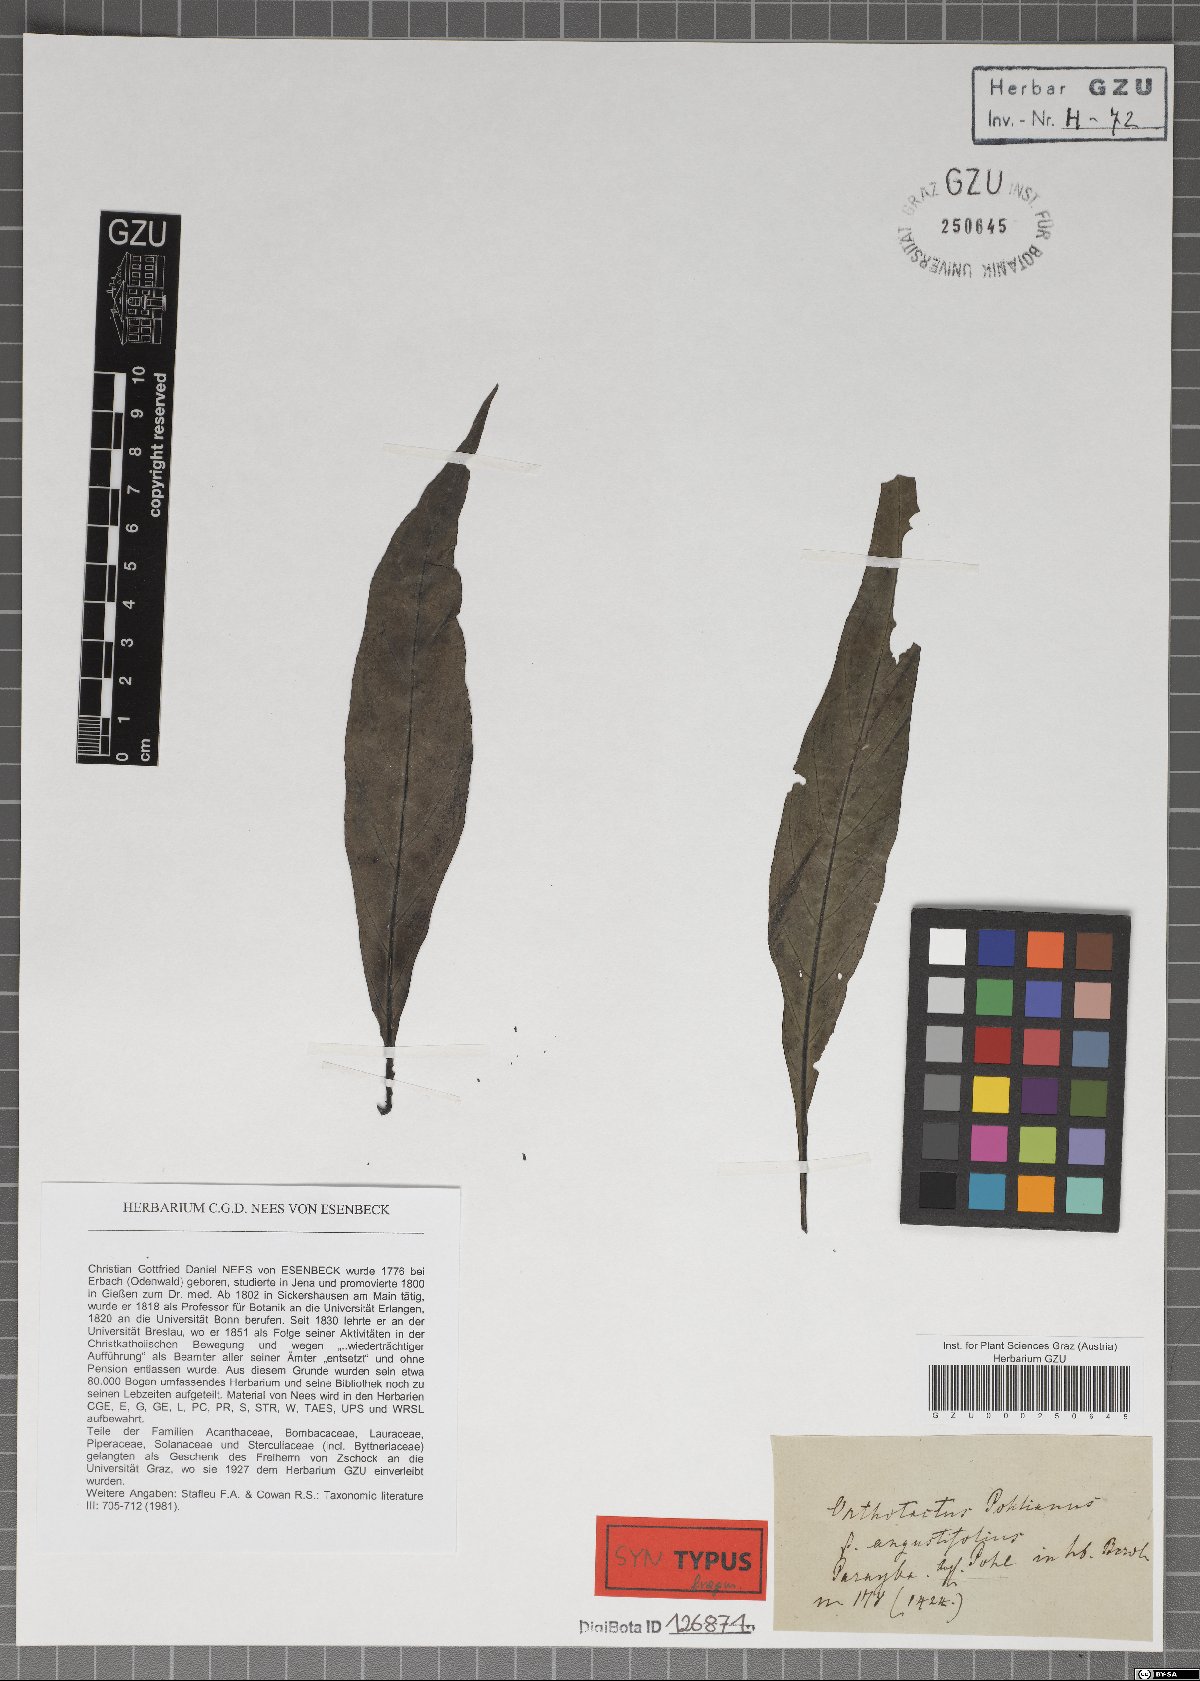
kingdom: Plantae
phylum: Tracheophyta
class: Magnoliopsida
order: Lamiales
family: Acanthaceae
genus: Justicia
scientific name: Justicia carnea
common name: Brazilian-plume
